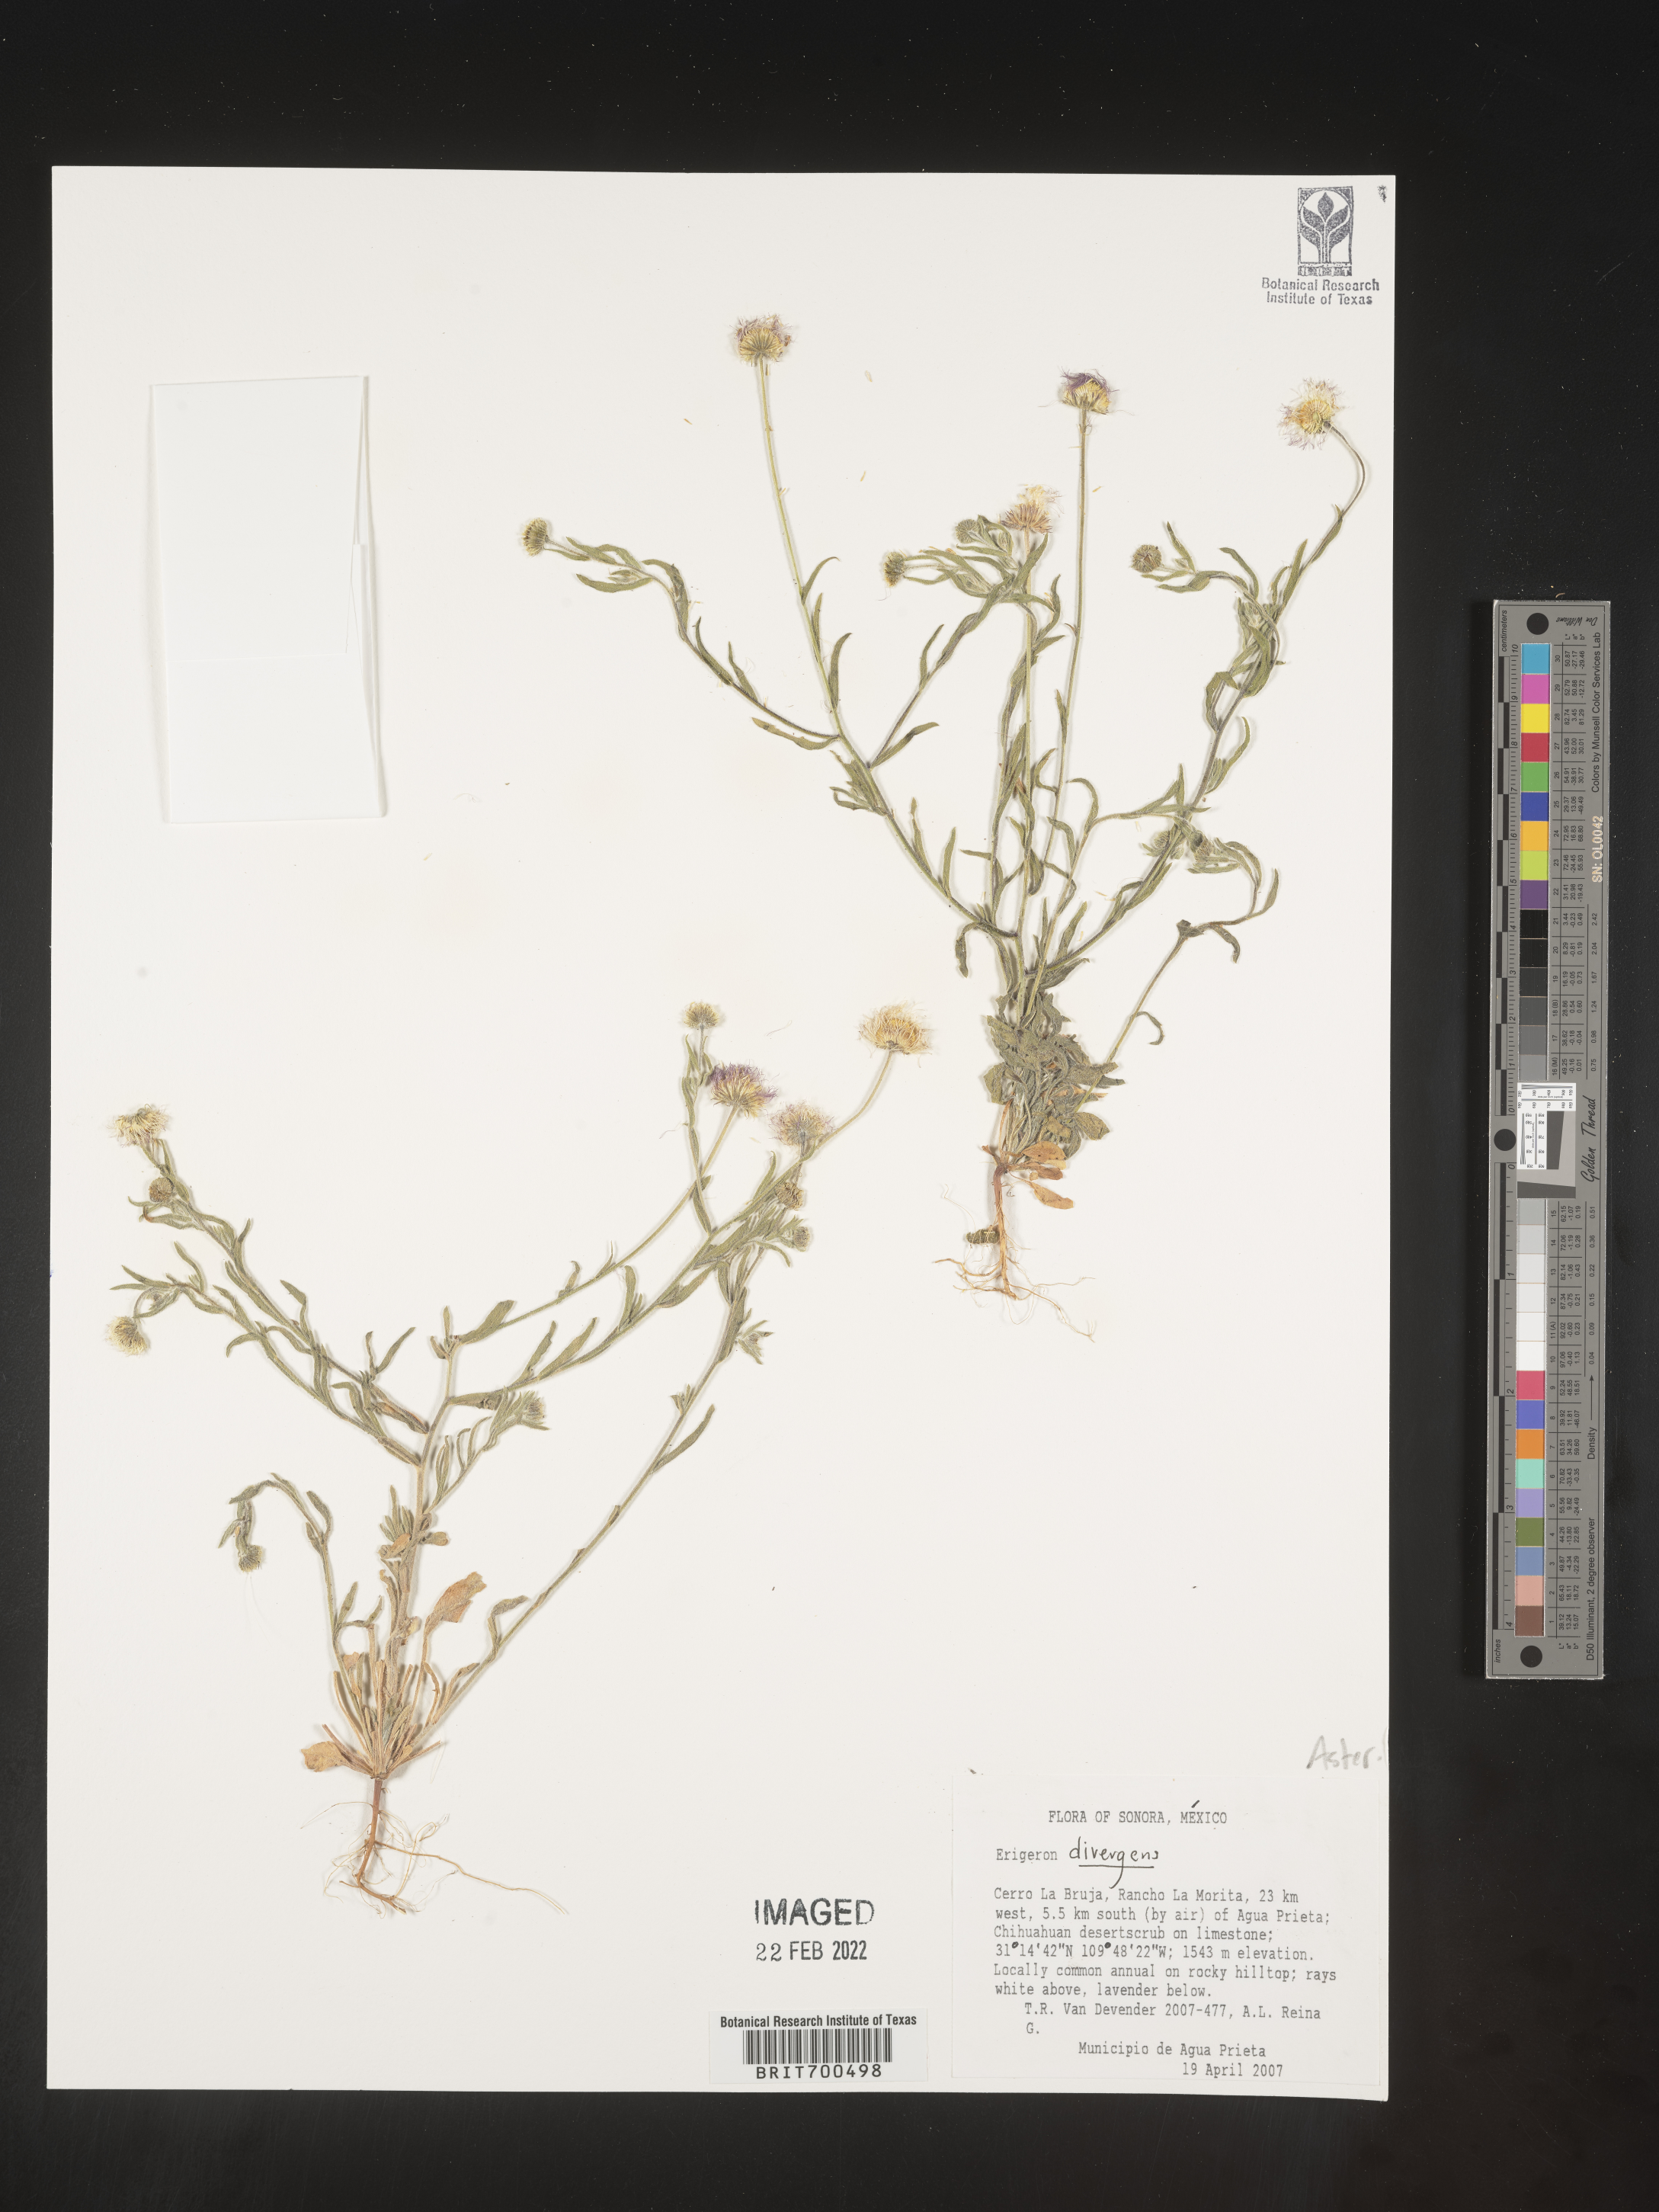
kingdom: Plantae
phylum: Tracheophyta
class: Magnoliopsida
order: Asterales
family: Asteraceae
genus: Erigeron
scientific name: Erigeron
